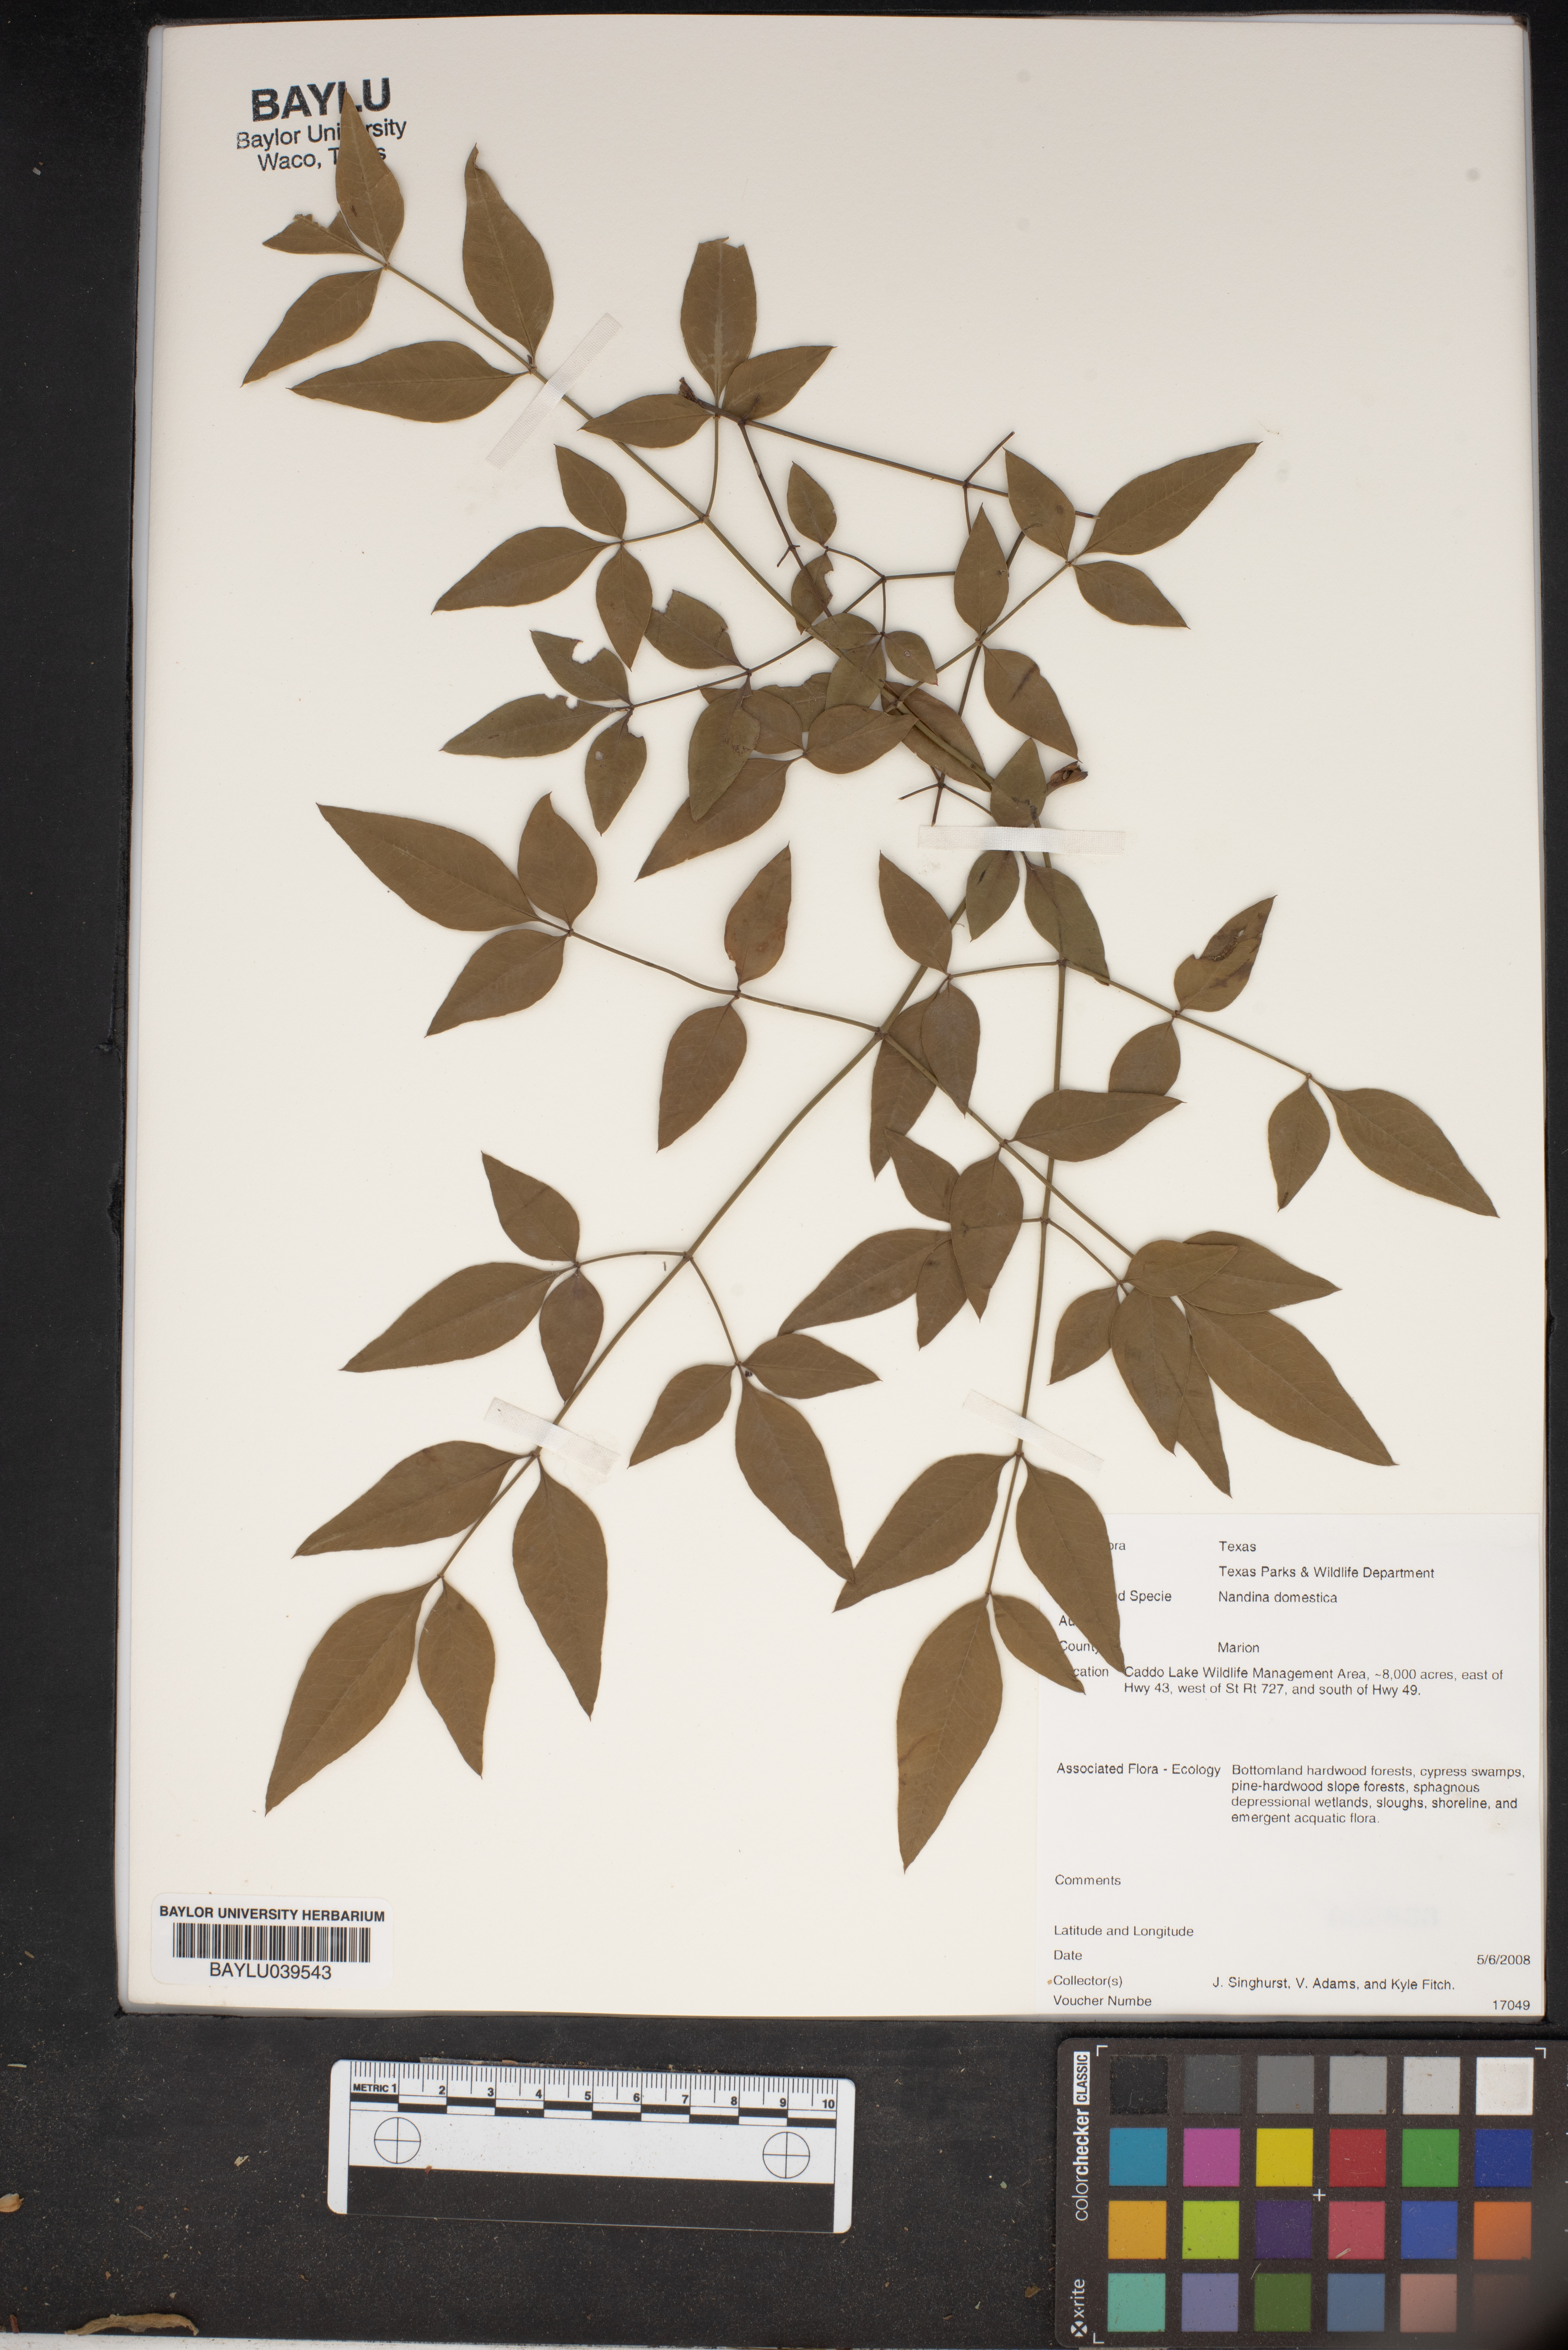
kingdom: Plantae
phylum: Tracheophyta
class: Magnoliopsida
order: Ranunculales
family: Berberidaceae
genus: Nandina
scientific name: Nandina domestica
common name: Sacred bamboo
